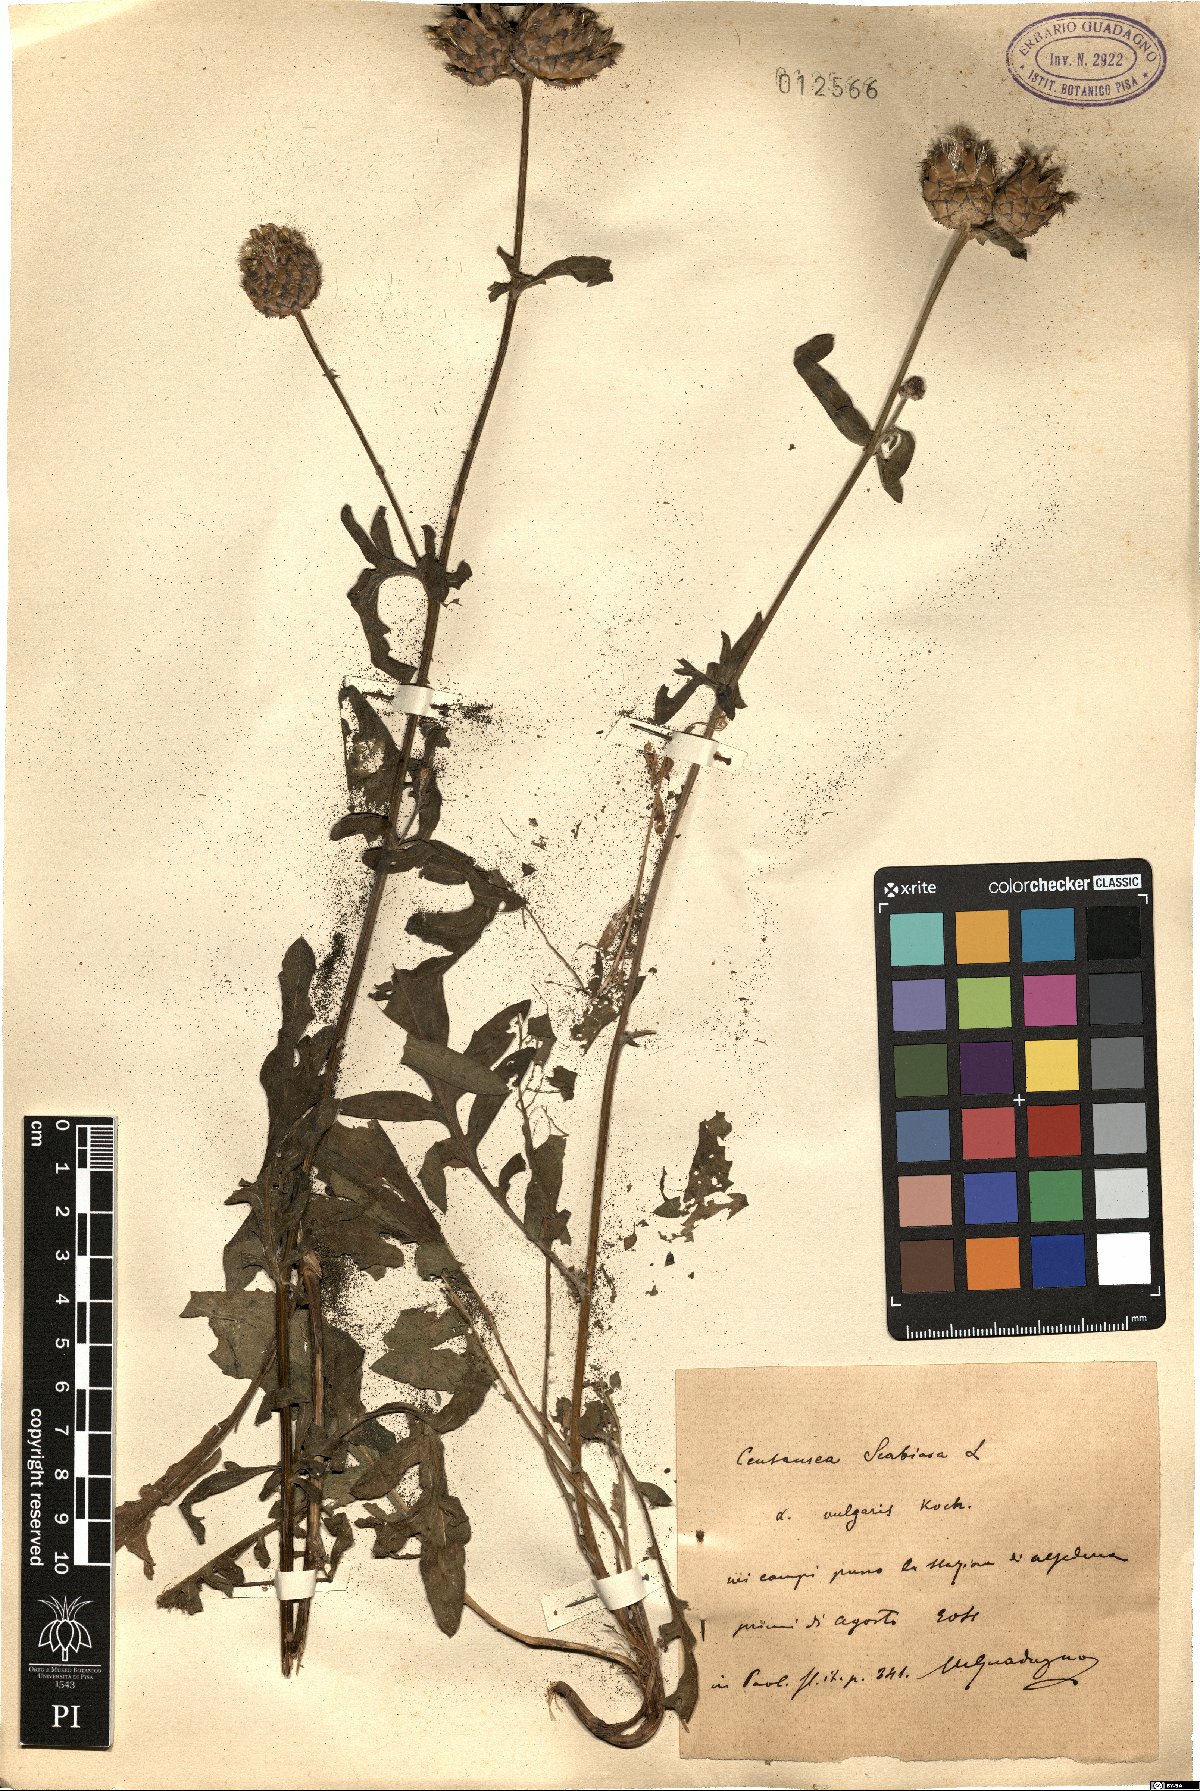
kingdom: Plantae
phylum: Tracheophyta
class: Magnoliopsida
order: Asterales
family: Asteraceae
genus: Centaurea
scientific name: Centaurea scabiosa
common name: Greater knapweed
